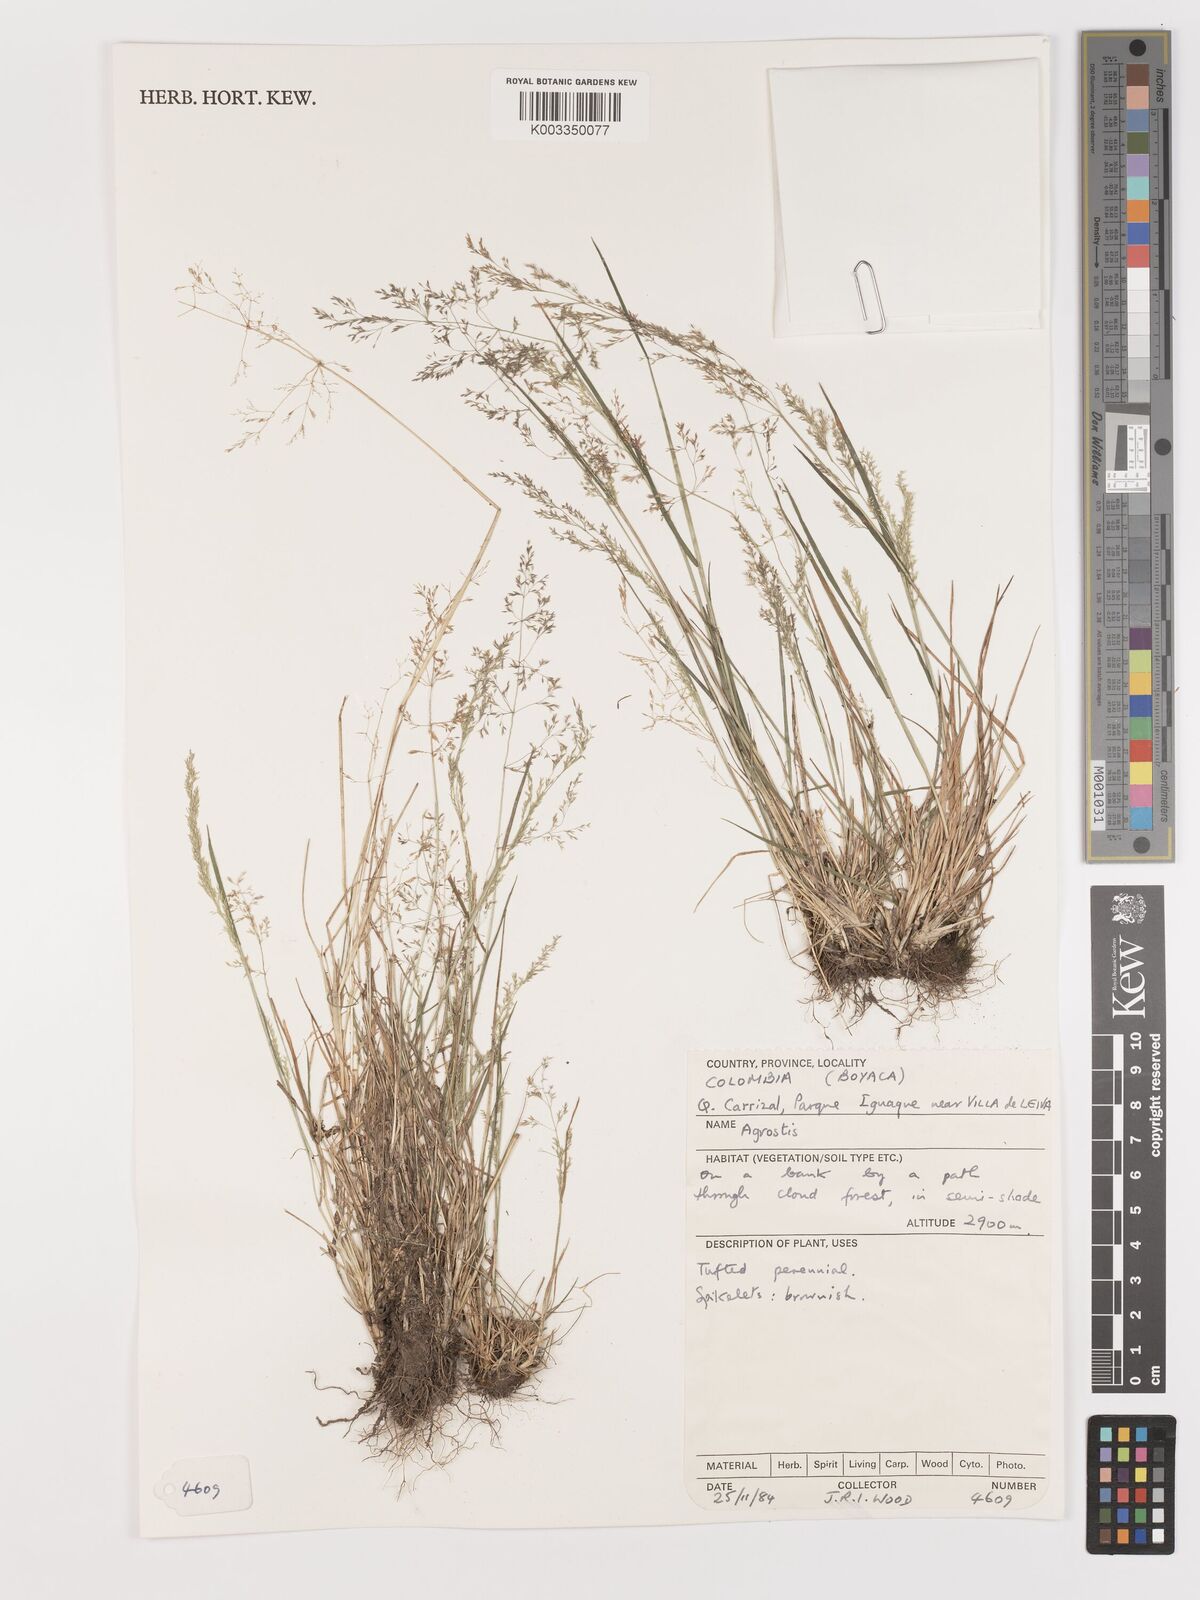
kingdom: Plantae
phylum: Tracheophyta
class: Liliopsida
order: Poales
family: Poaceae
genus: Agrostis
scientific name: Agrostis
